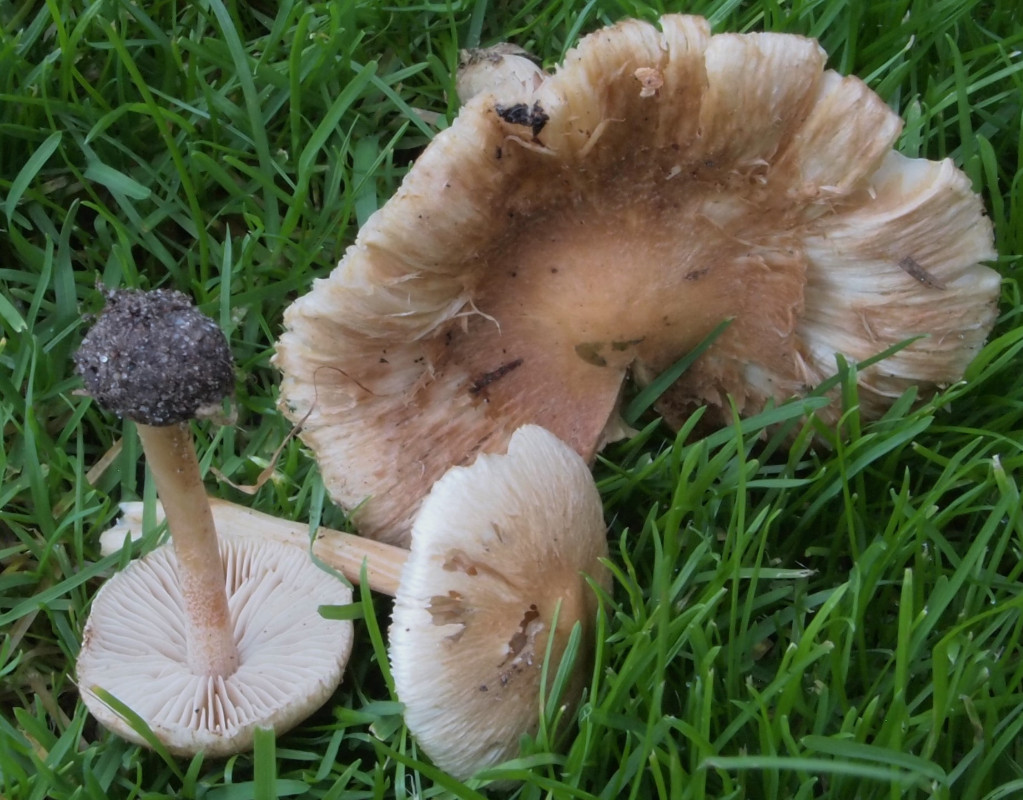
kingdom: Fungi
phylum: Basidiomycota
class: Agaricomycetes
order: Agaricales
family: Inocybaceae
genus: Inocybe
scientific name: Inocybe muricellata
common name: stribestokket trævlhat
